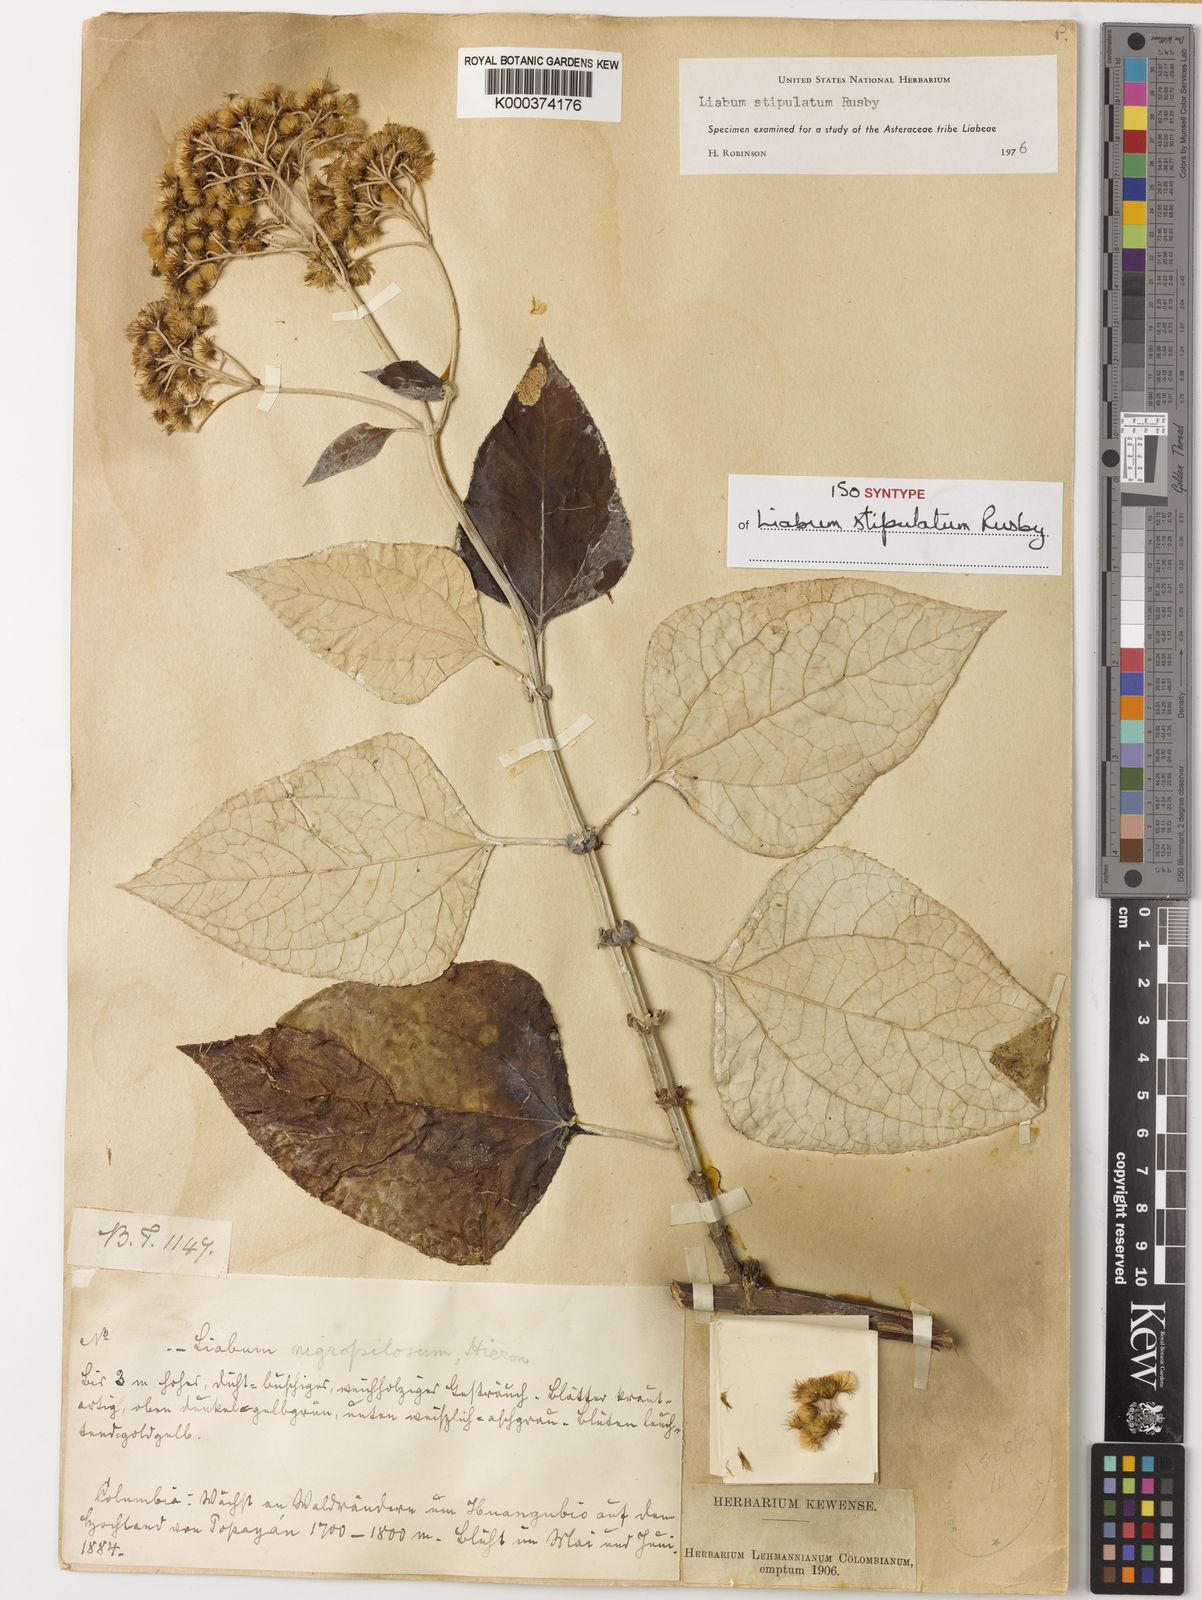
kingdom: Plantae
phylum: Tracheophyta
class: Magnoliopsida
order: Asterales
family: Asteraceae
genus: Liabum
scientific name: Liabum stipulatum
